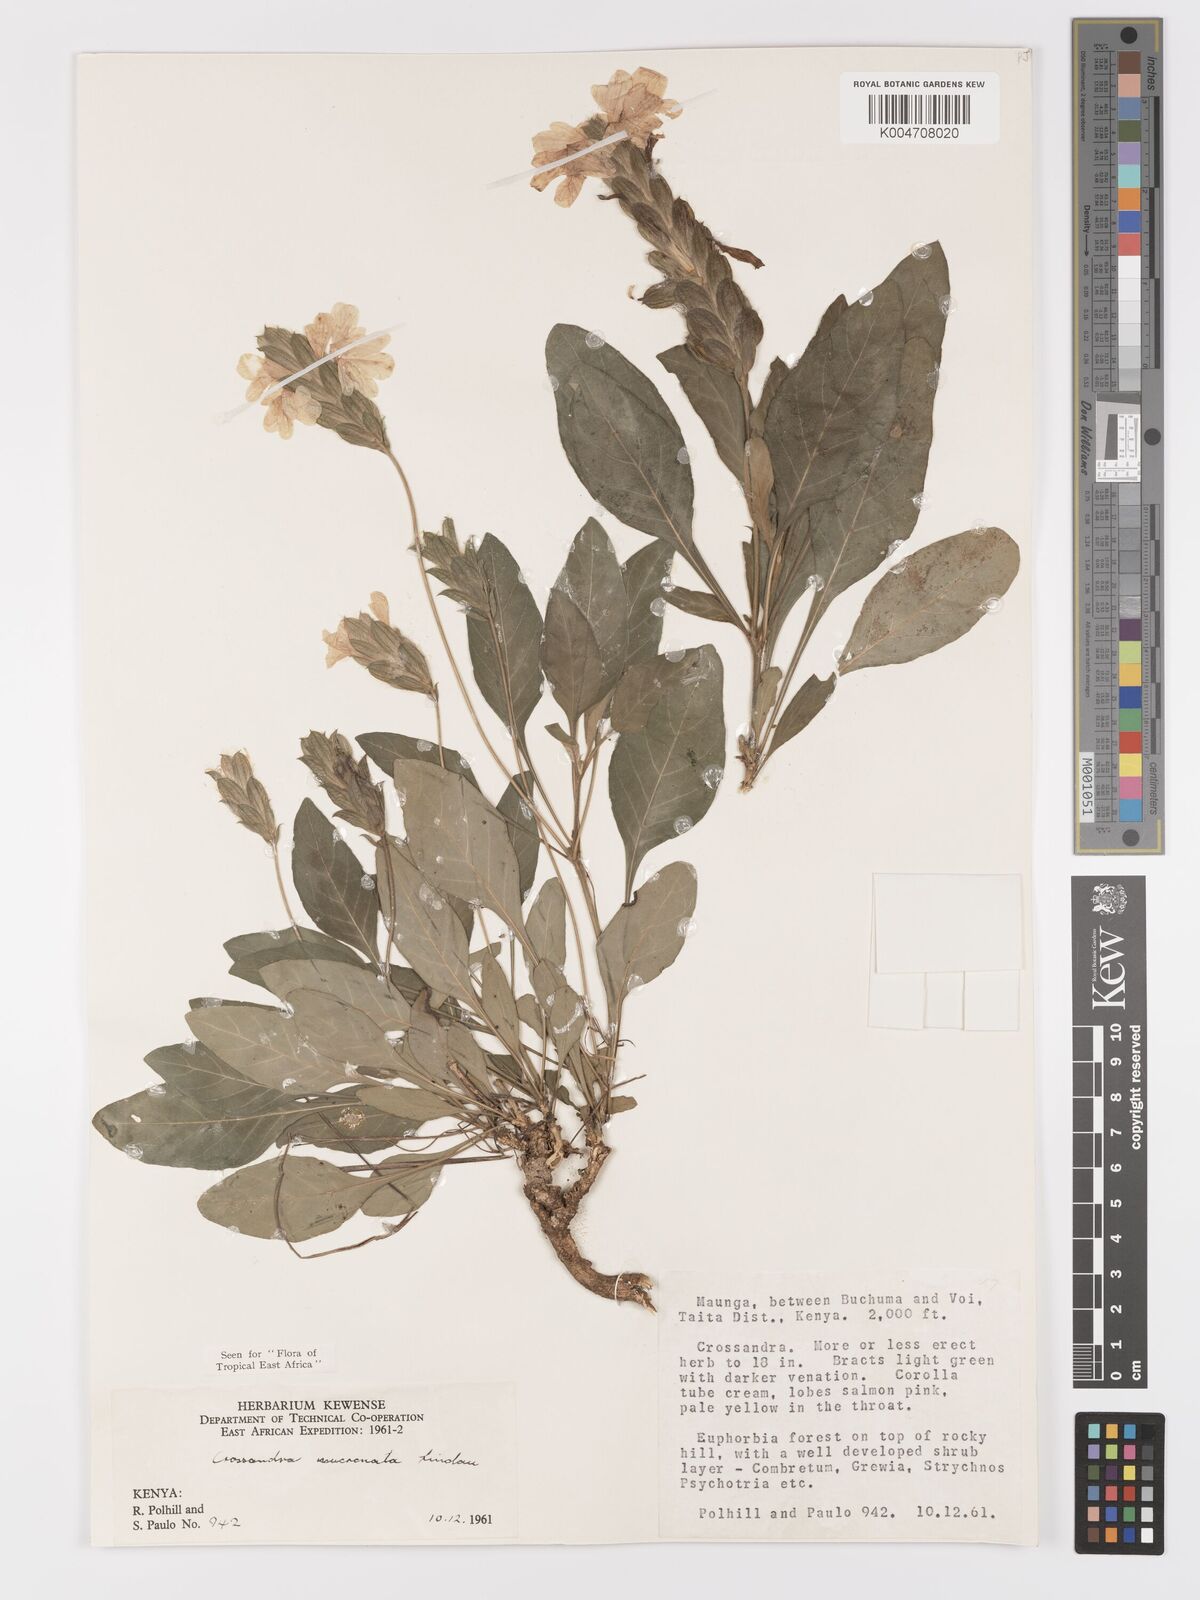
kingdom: Plantae
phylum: Tracheophyta
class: Magnoliopsida
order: Lamiales
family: Acanthaceae
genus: Crossandra
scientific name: Crossandra mucronata
